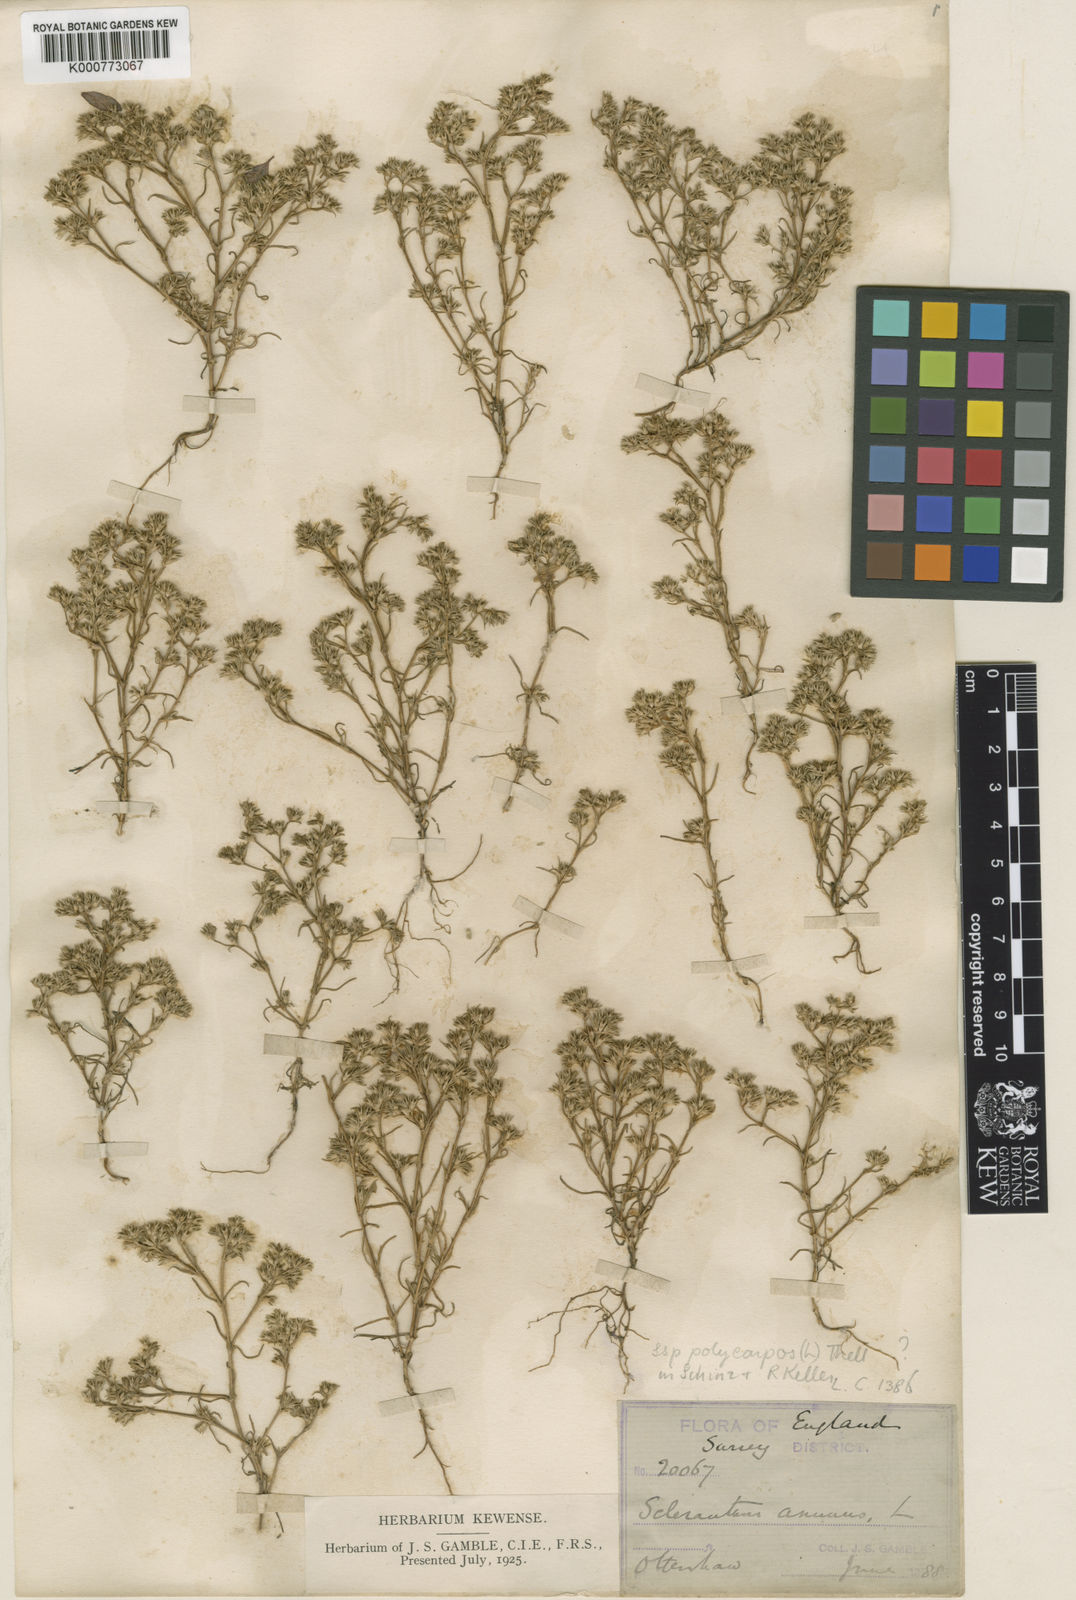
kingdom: Plantae
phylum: Tracheophyta
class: Magnoliopsida
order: Caryophyllales
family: Caryophyllaceae
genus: Scleranthus
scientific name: Scleranthus annuus
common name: Annual knawel
